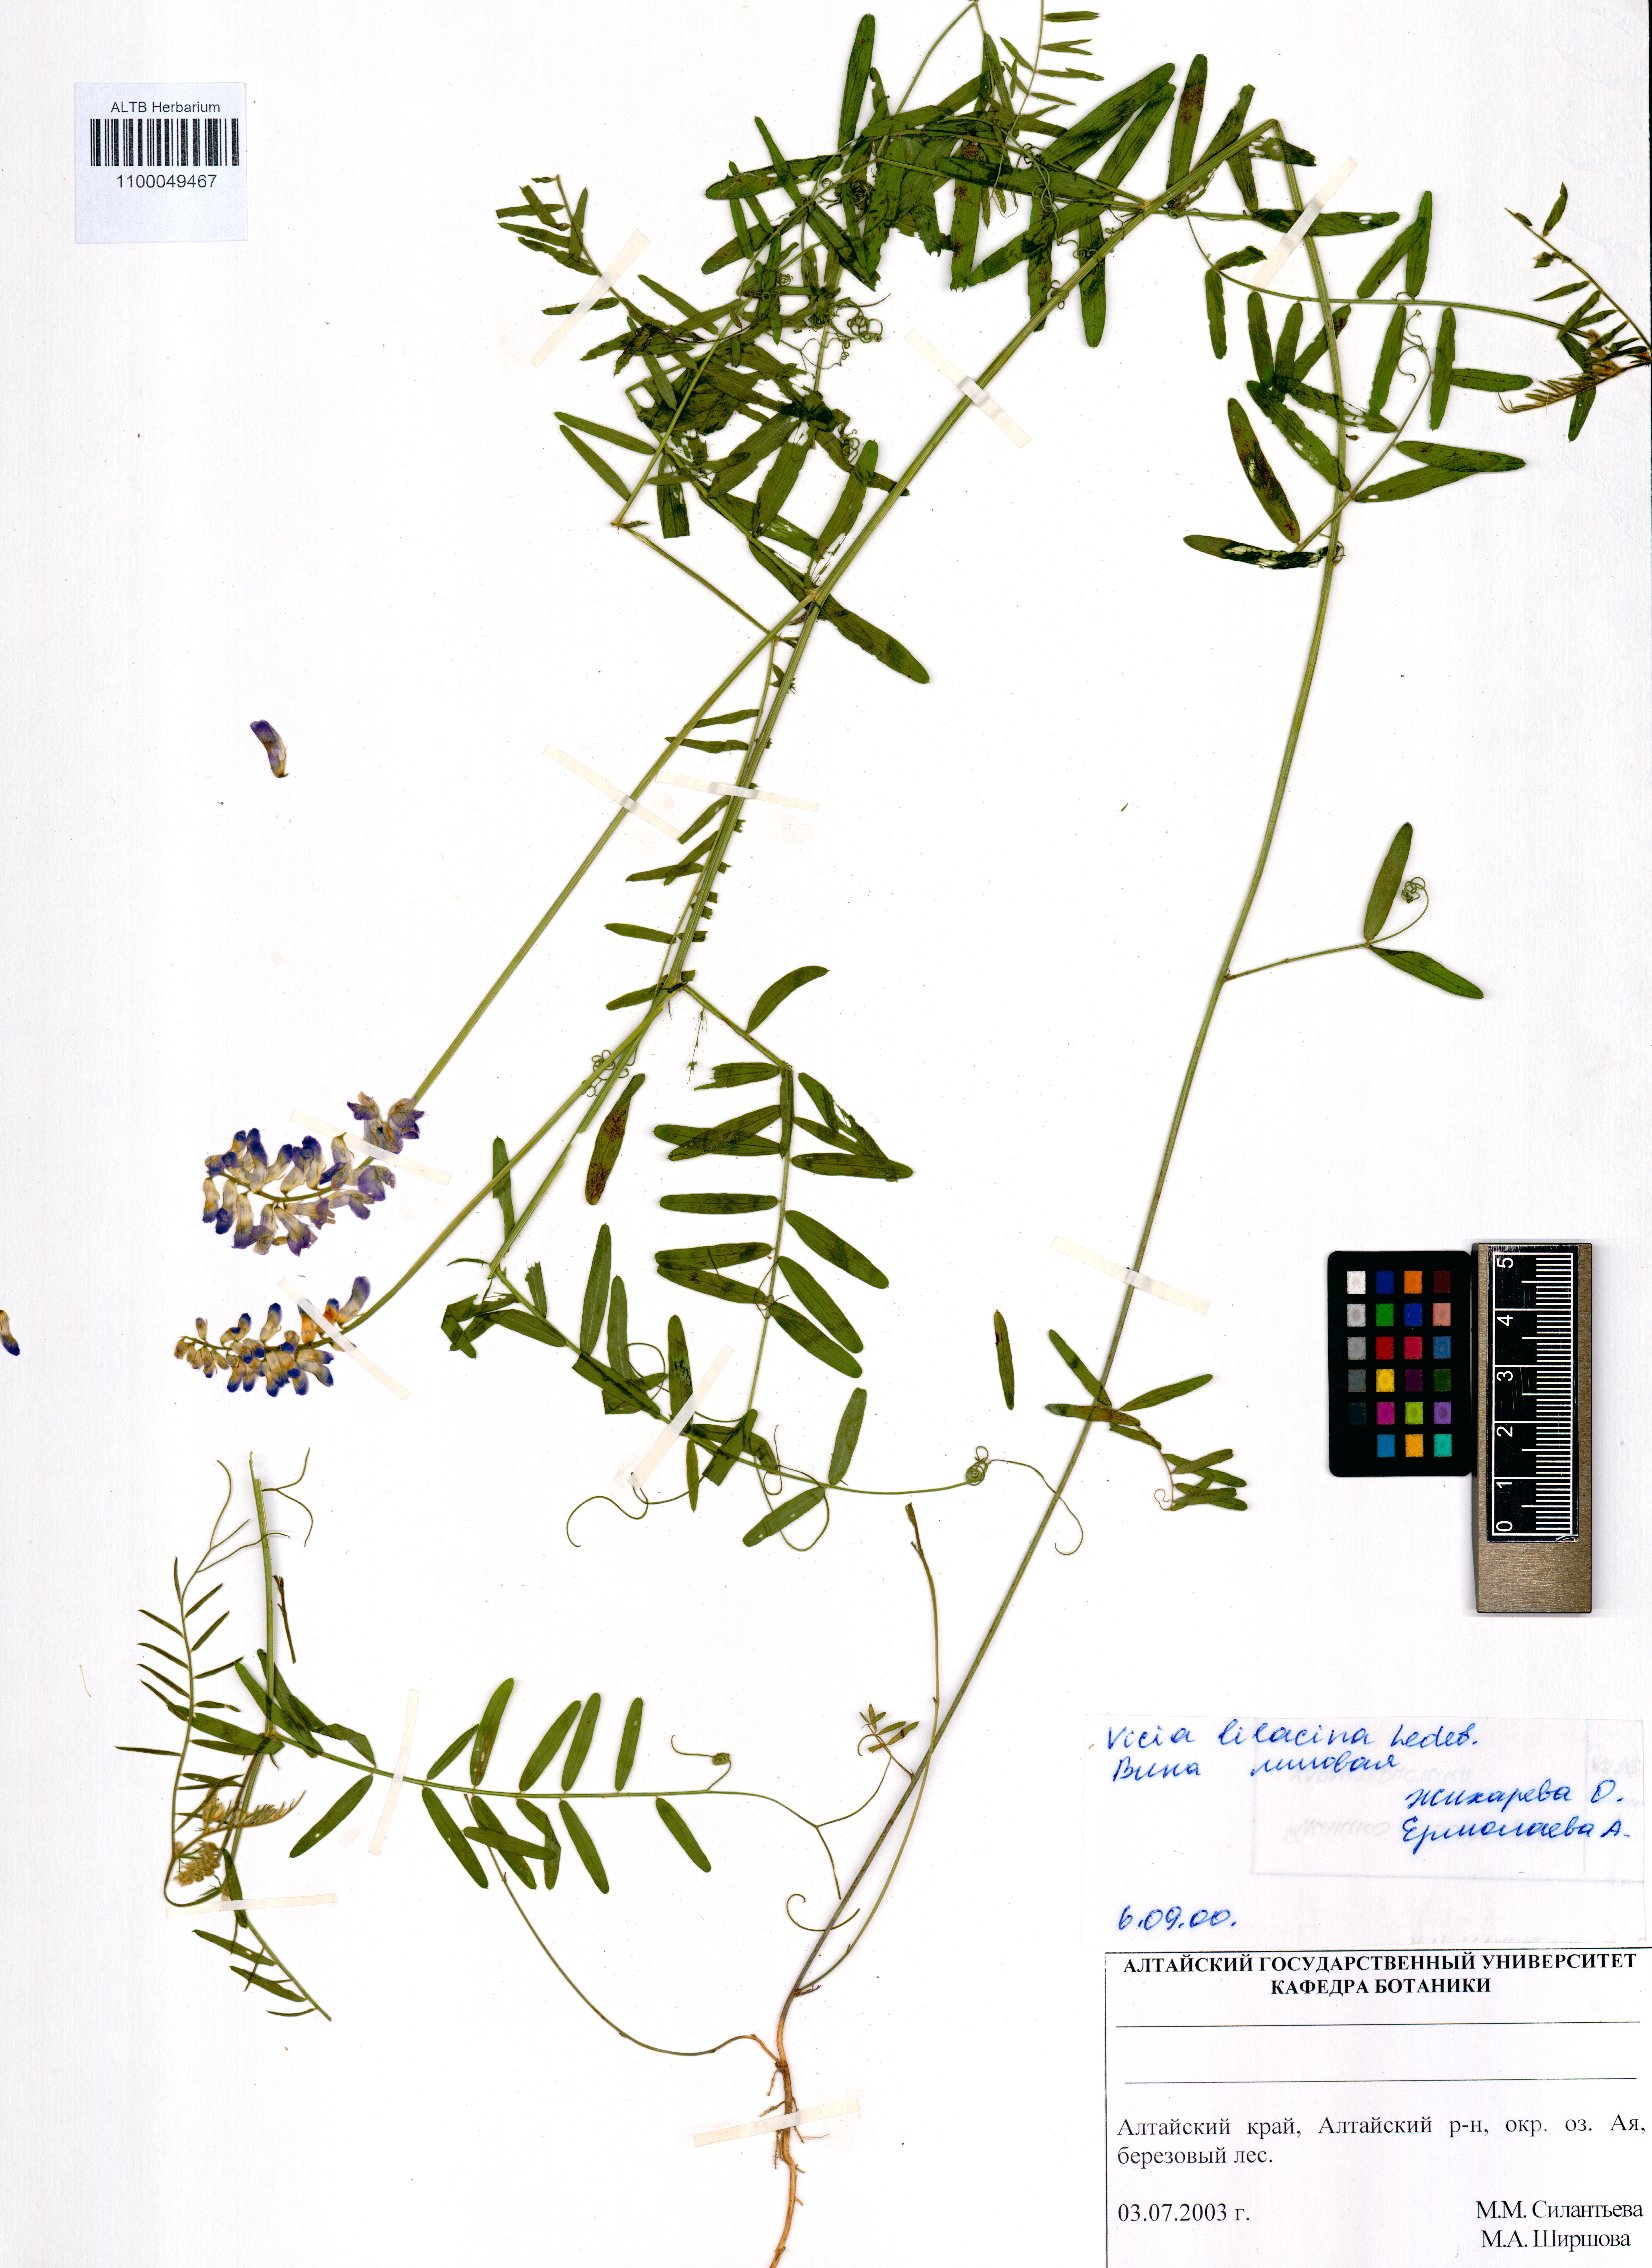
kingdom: Plantae
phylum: Tracheophyta
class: Magnoliopsida
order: Fabales
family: Fabaceae
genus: Vicia
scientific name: Vicia lilacina
